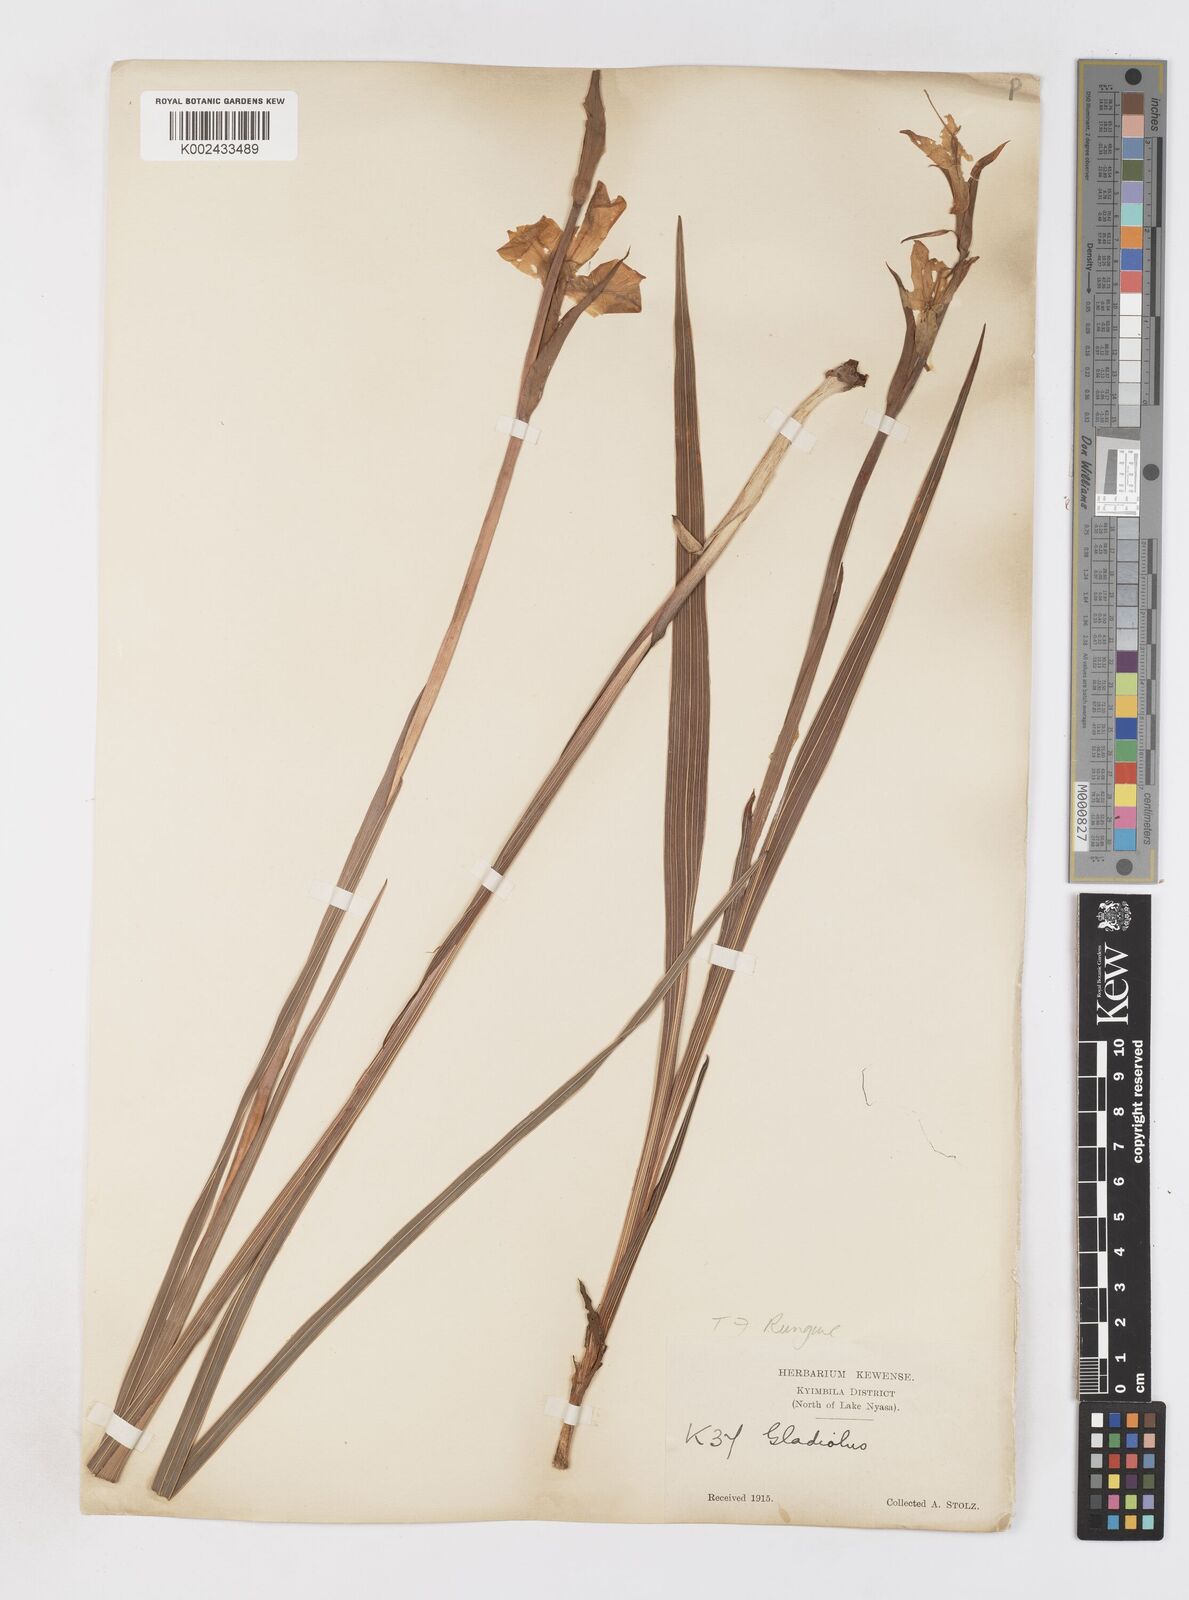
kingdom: Plantae
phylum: Tracheophyta
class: Liliopsida
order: Asparagales
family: Iridaceae
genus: Gladiolus
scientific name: Gladiolus dalenii
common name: Cornflag
